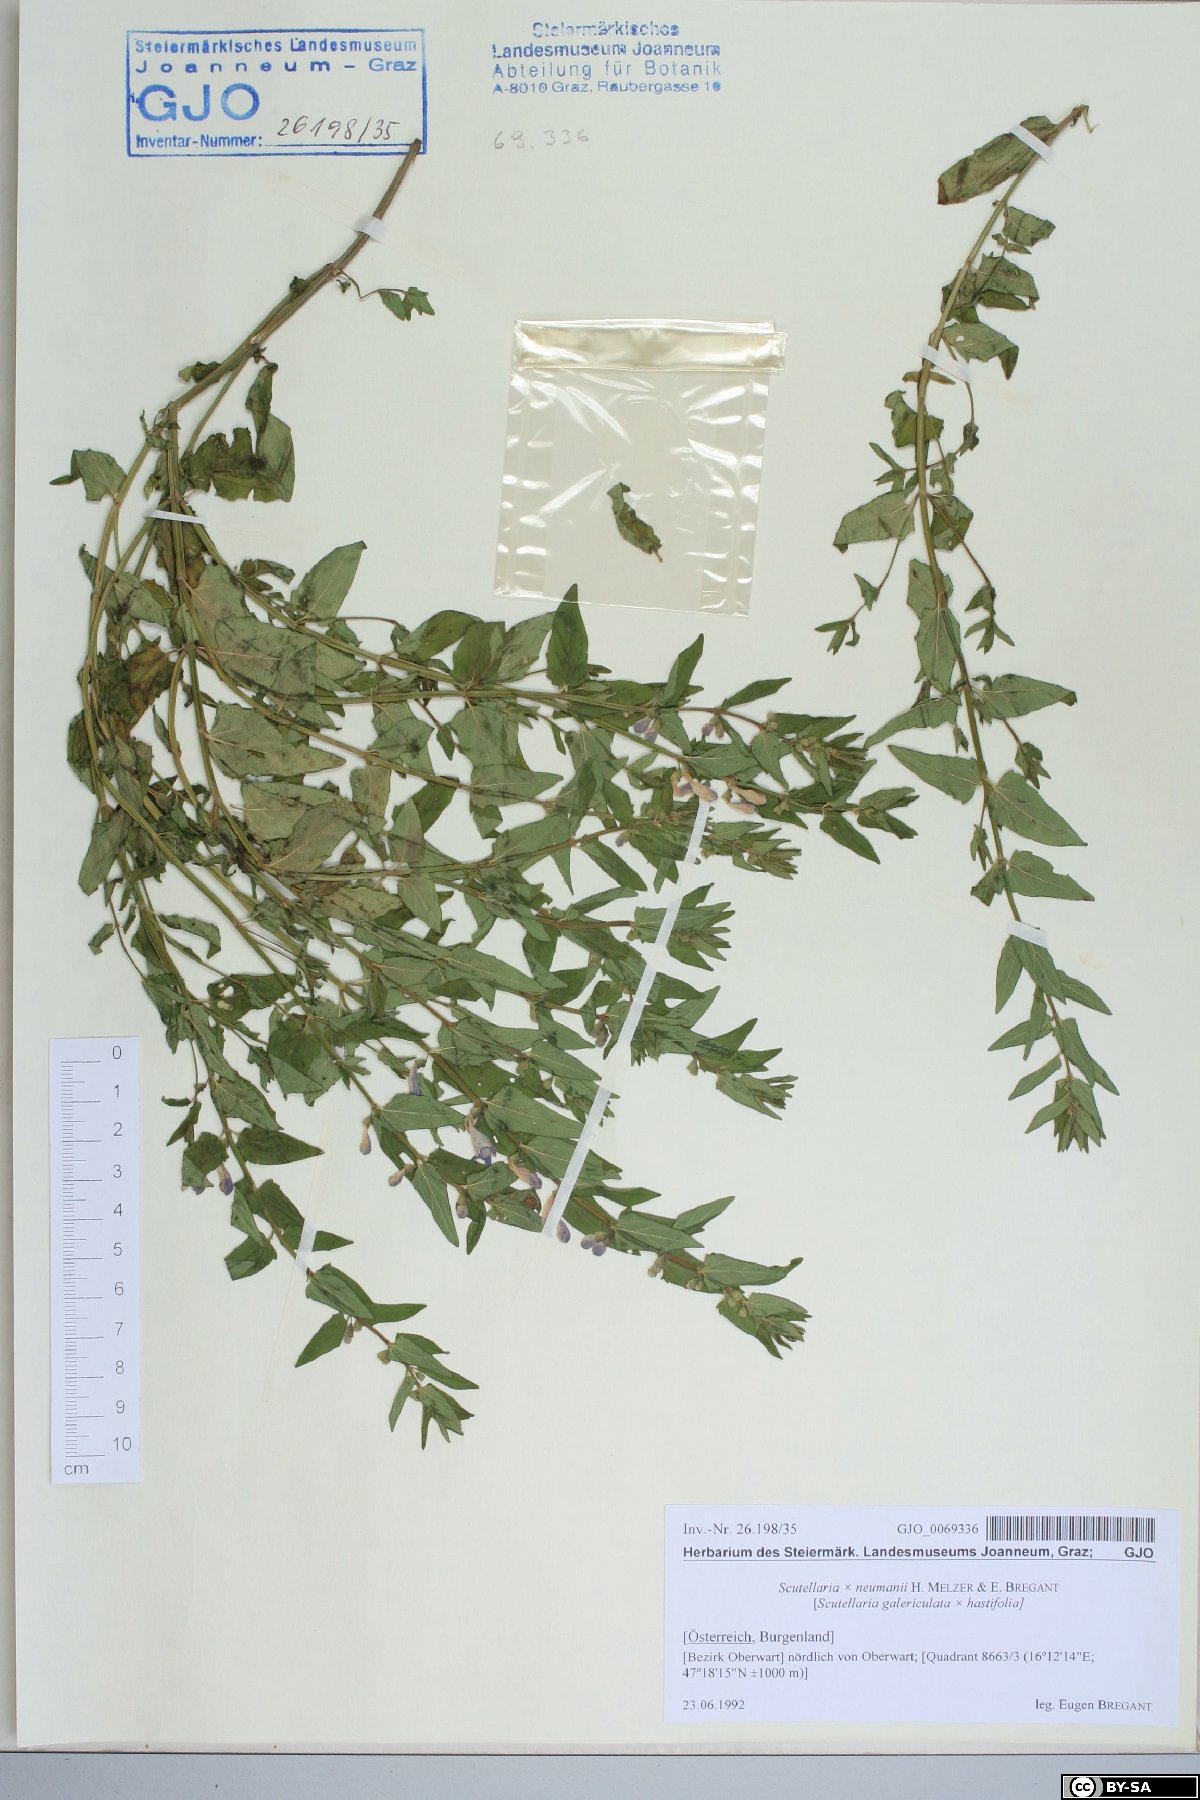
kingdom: Plantae
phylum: Tracheophyta
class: Magnoliopsida
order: Lamiales
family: Lamiaceae
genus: Scutellaria
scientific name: Scutellaria neumannii
